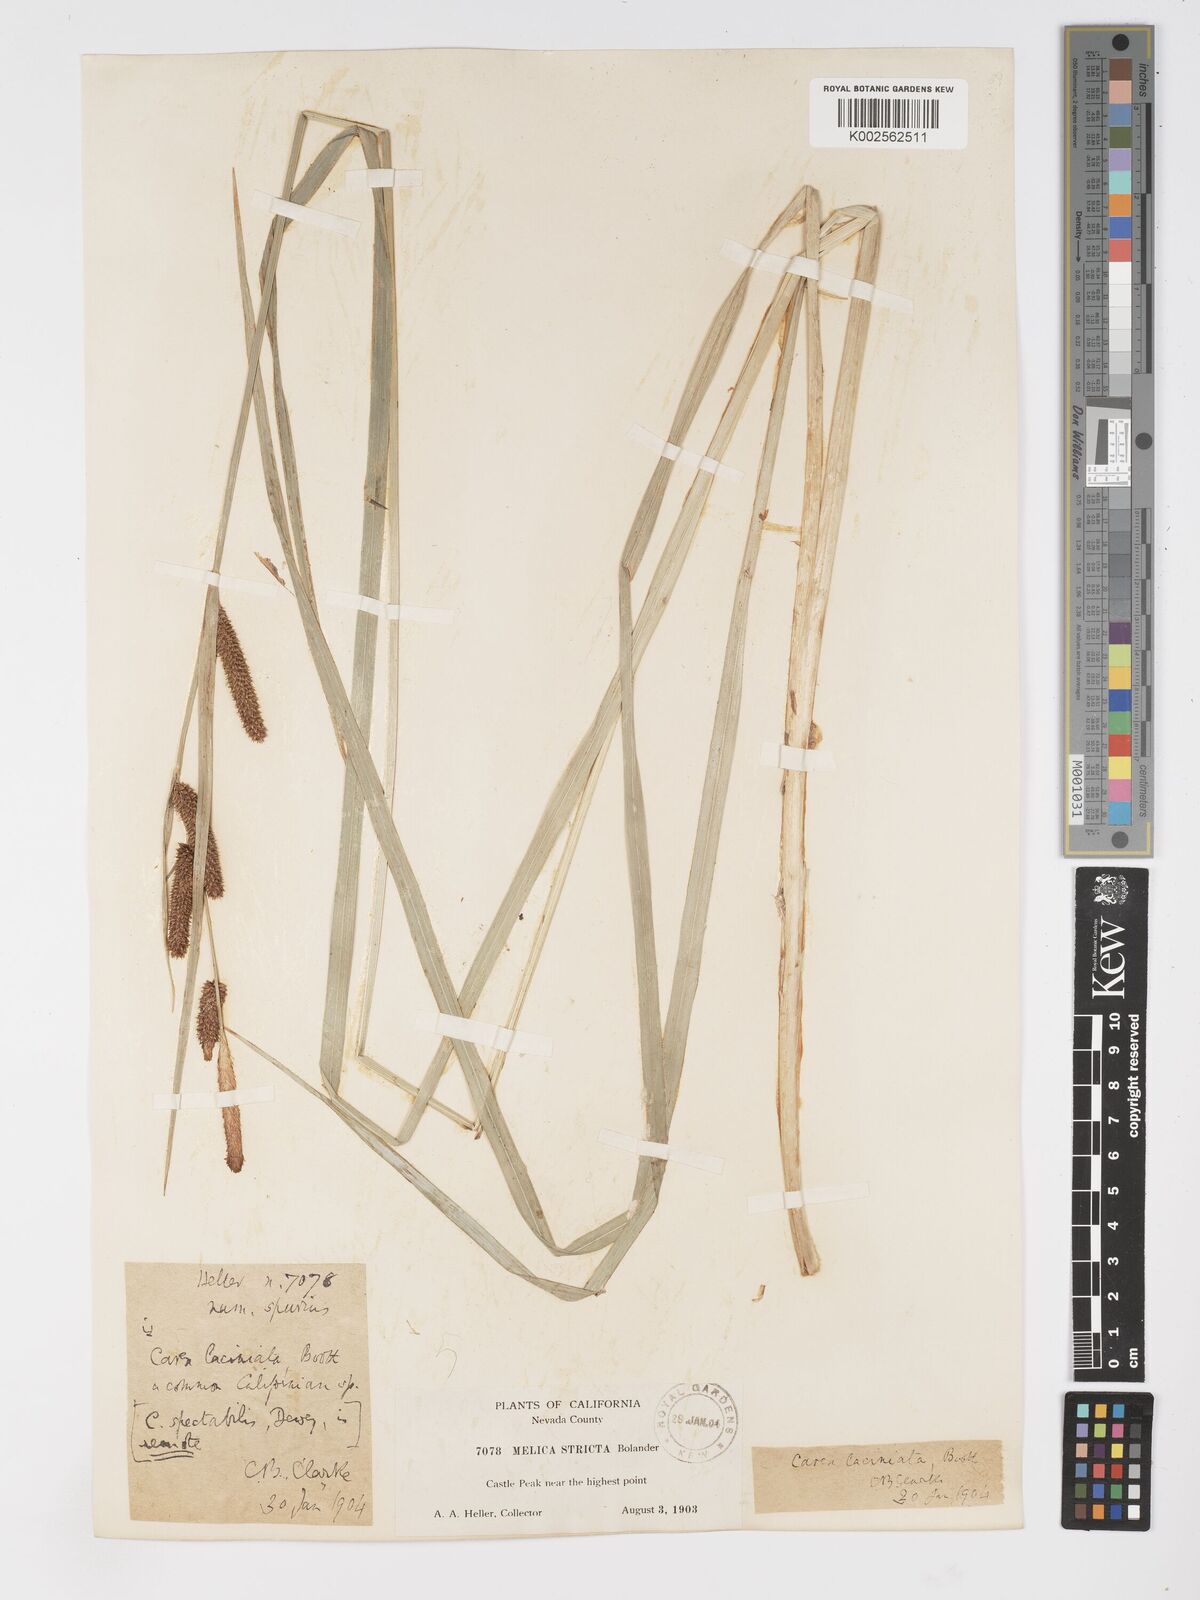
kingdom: Plantae
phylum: Tracheophyta
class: Liliopsida
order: Poales
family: Cyperaceae
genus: Carex
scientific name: Carex barbarae
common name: Santa barbara sedge
